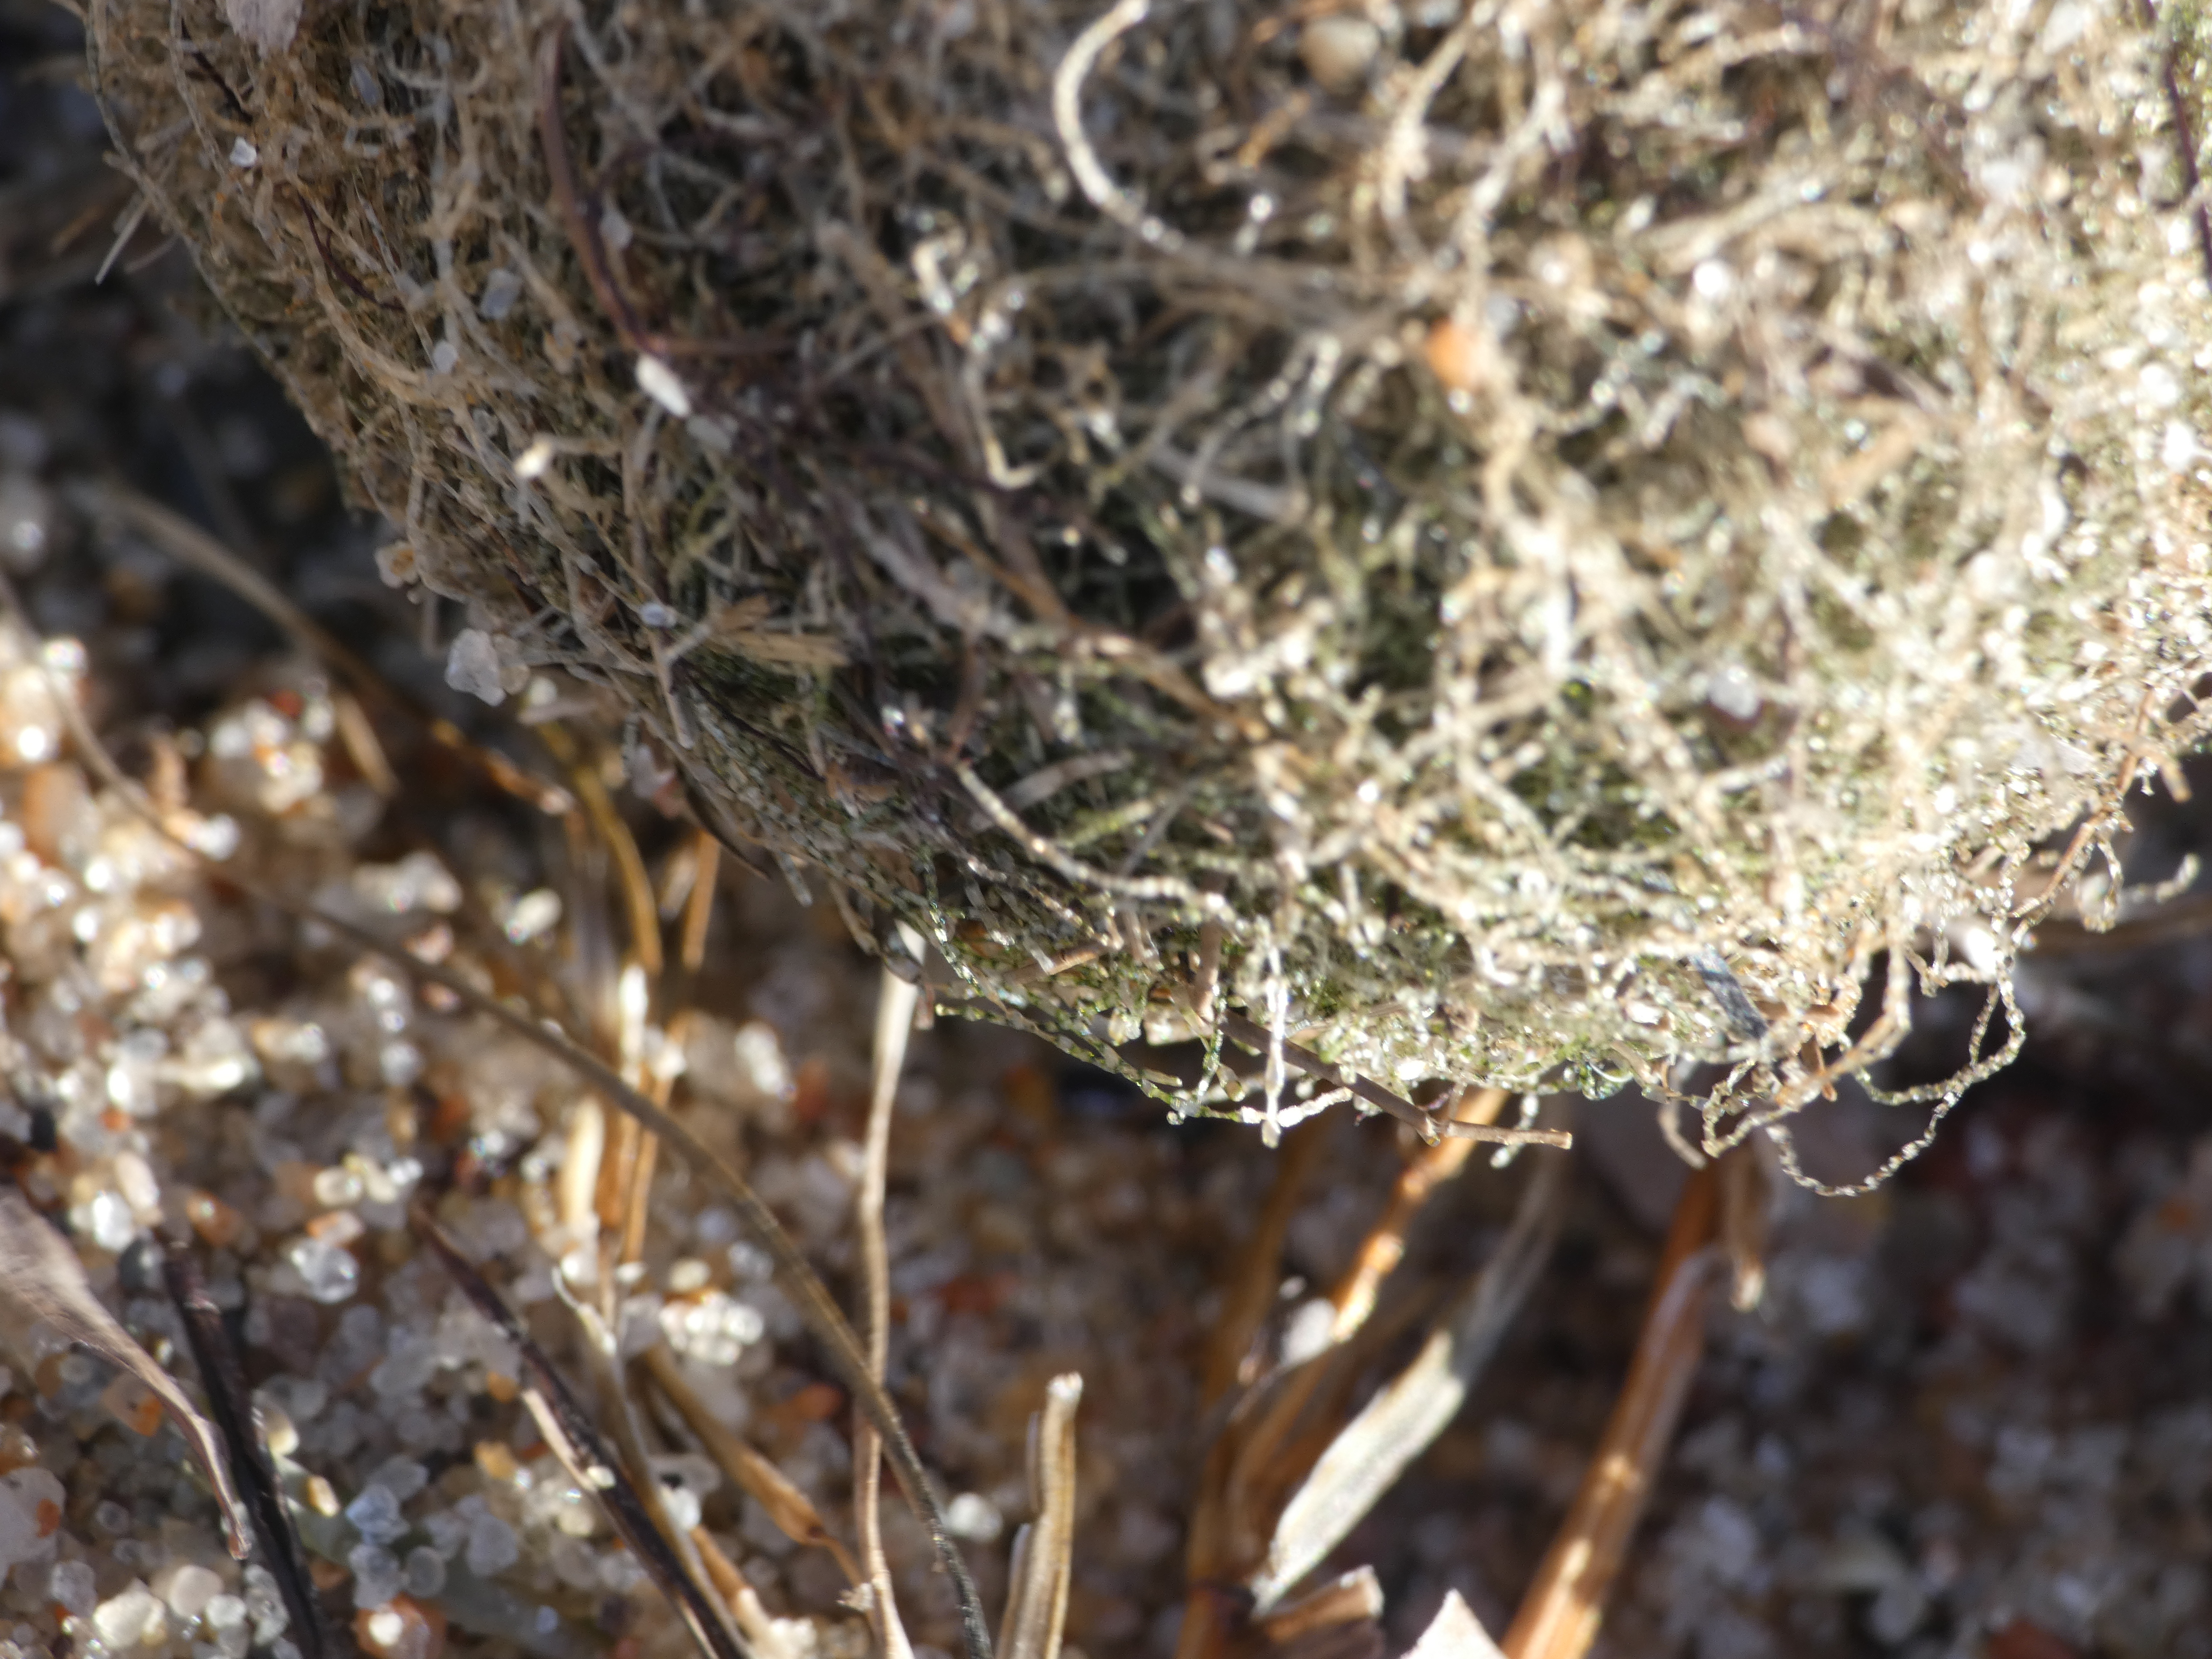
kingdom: Plantae
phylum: Chlorophyta
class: Ulvophyceae
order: Cladophorales
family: Cladophoraceae
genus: Chaetomorpha
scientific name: Chaetomorpha linum
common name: Almindelig børstetråd
